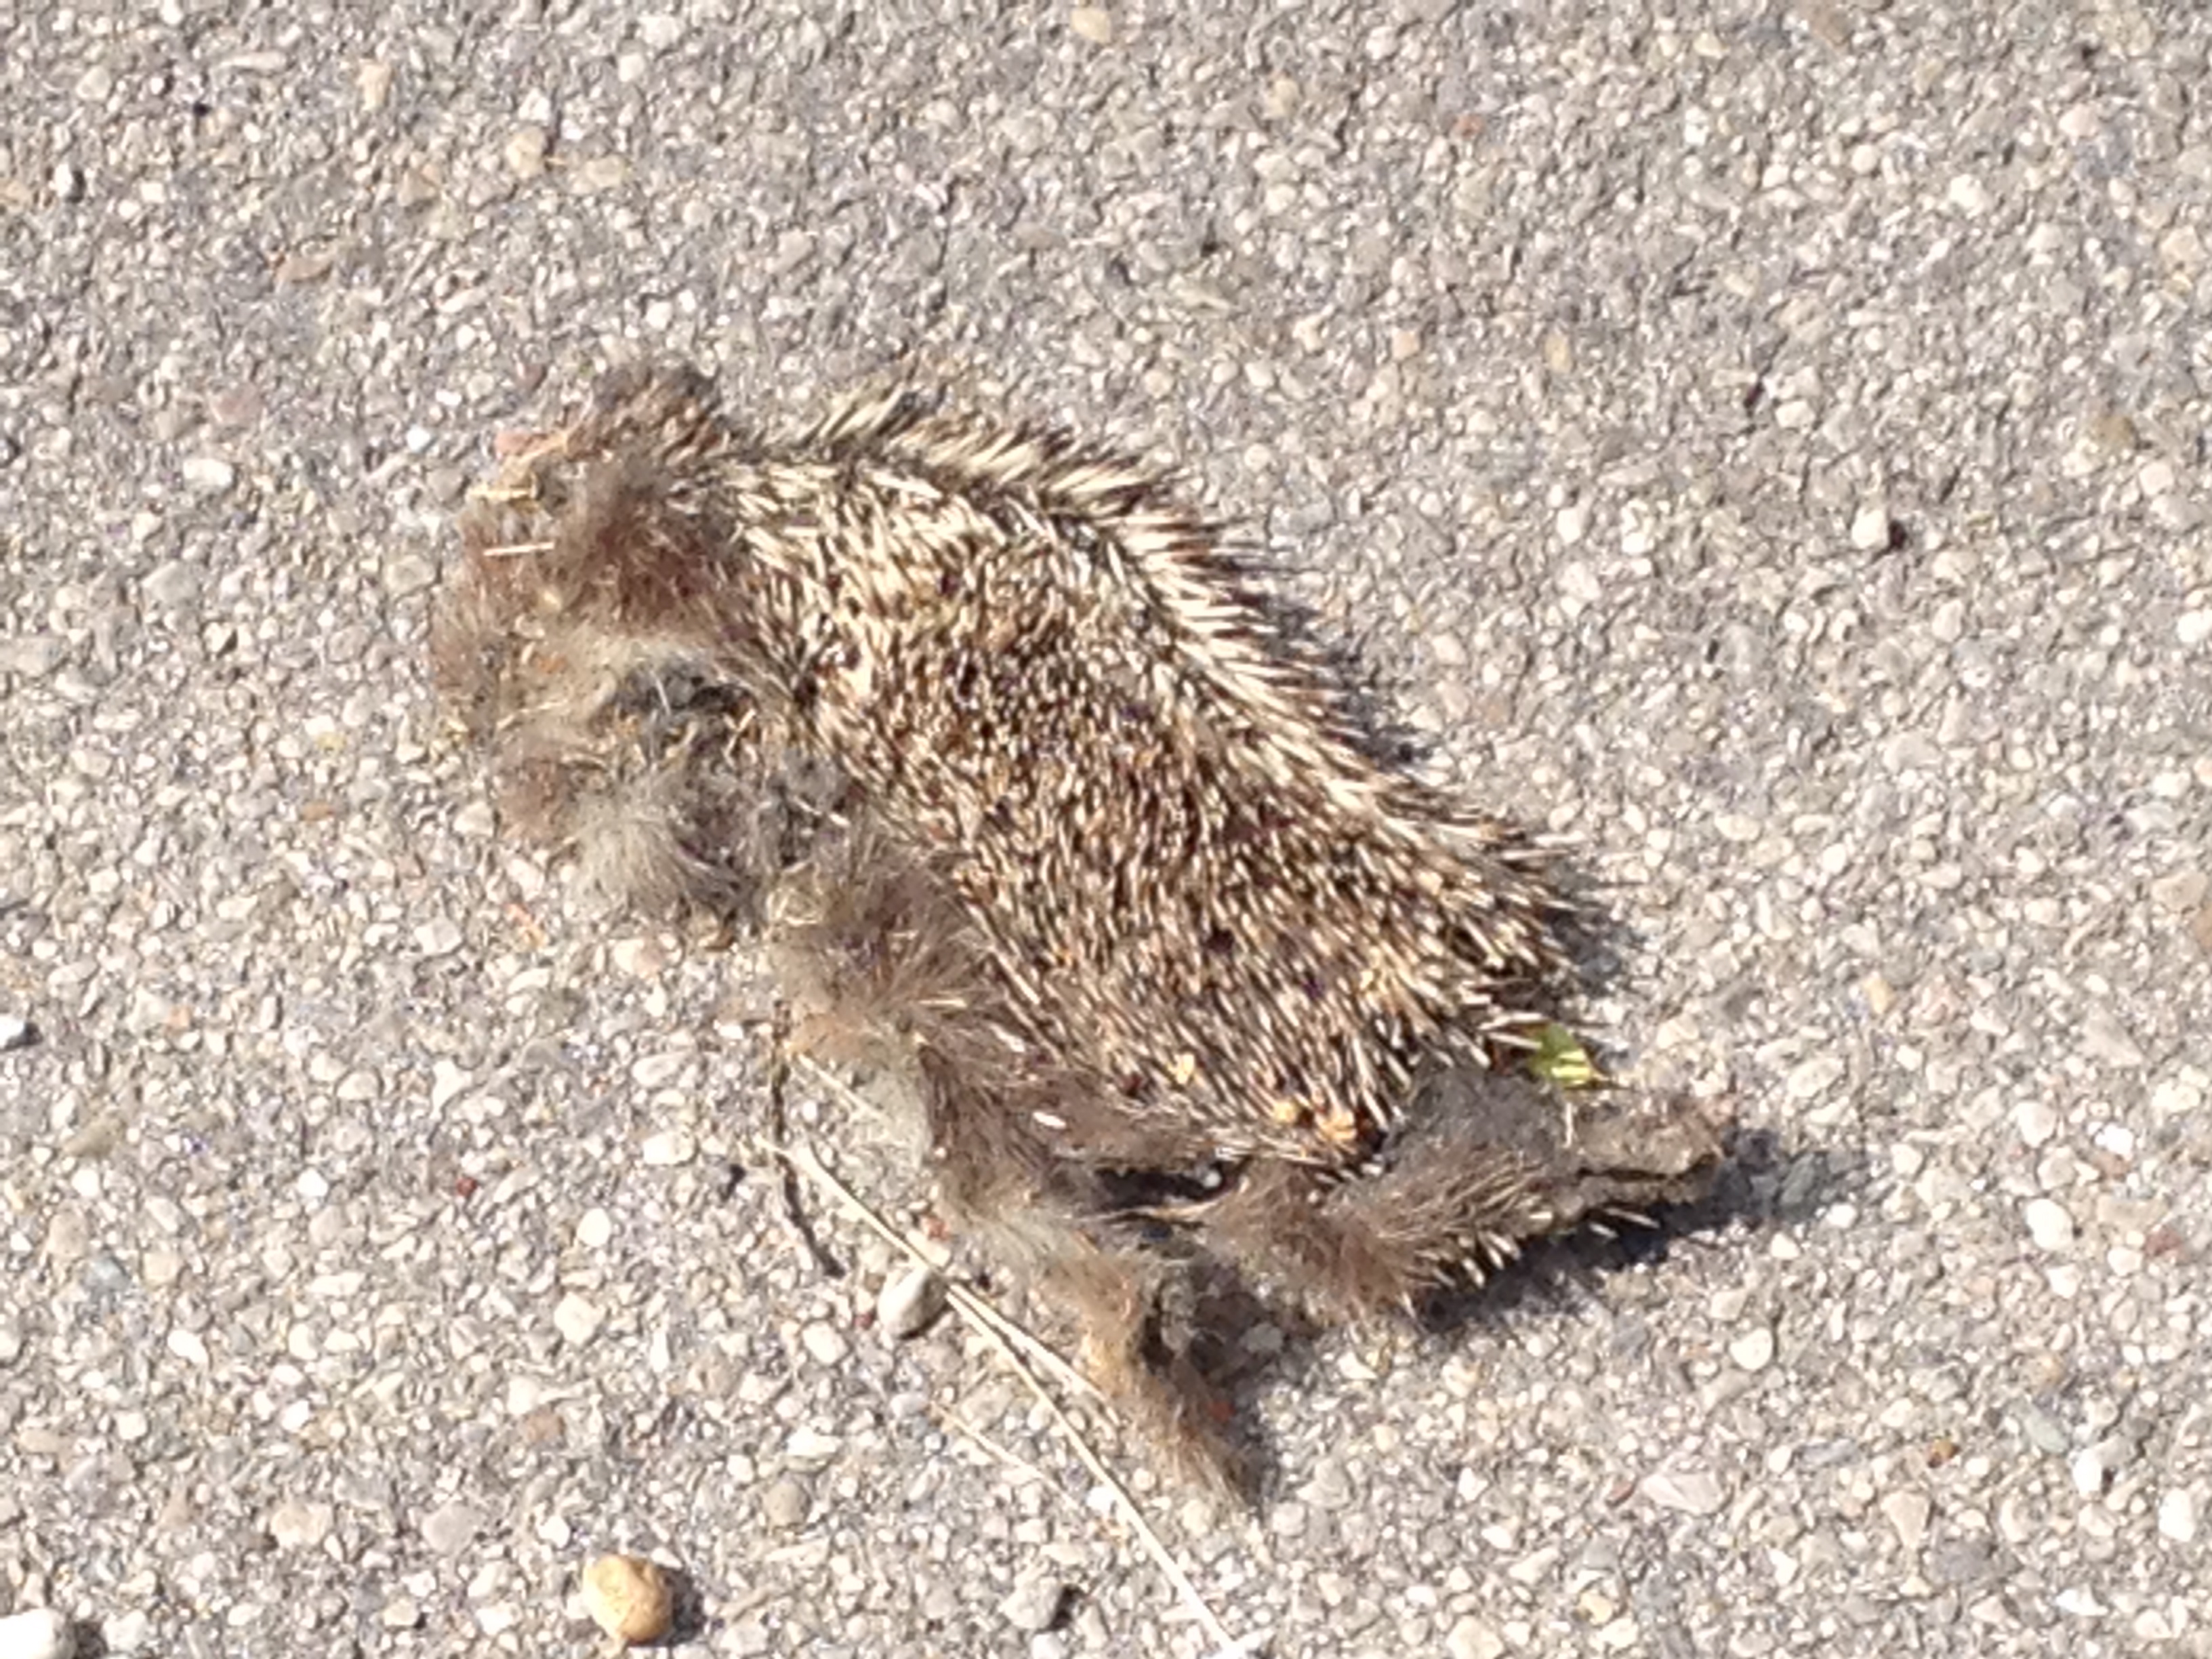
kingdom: Animalia
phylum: Chordata
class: Mammalia
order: Erinaceomorpha
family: Erinaceidae
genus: Erinaceus
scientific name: Erinaceus
